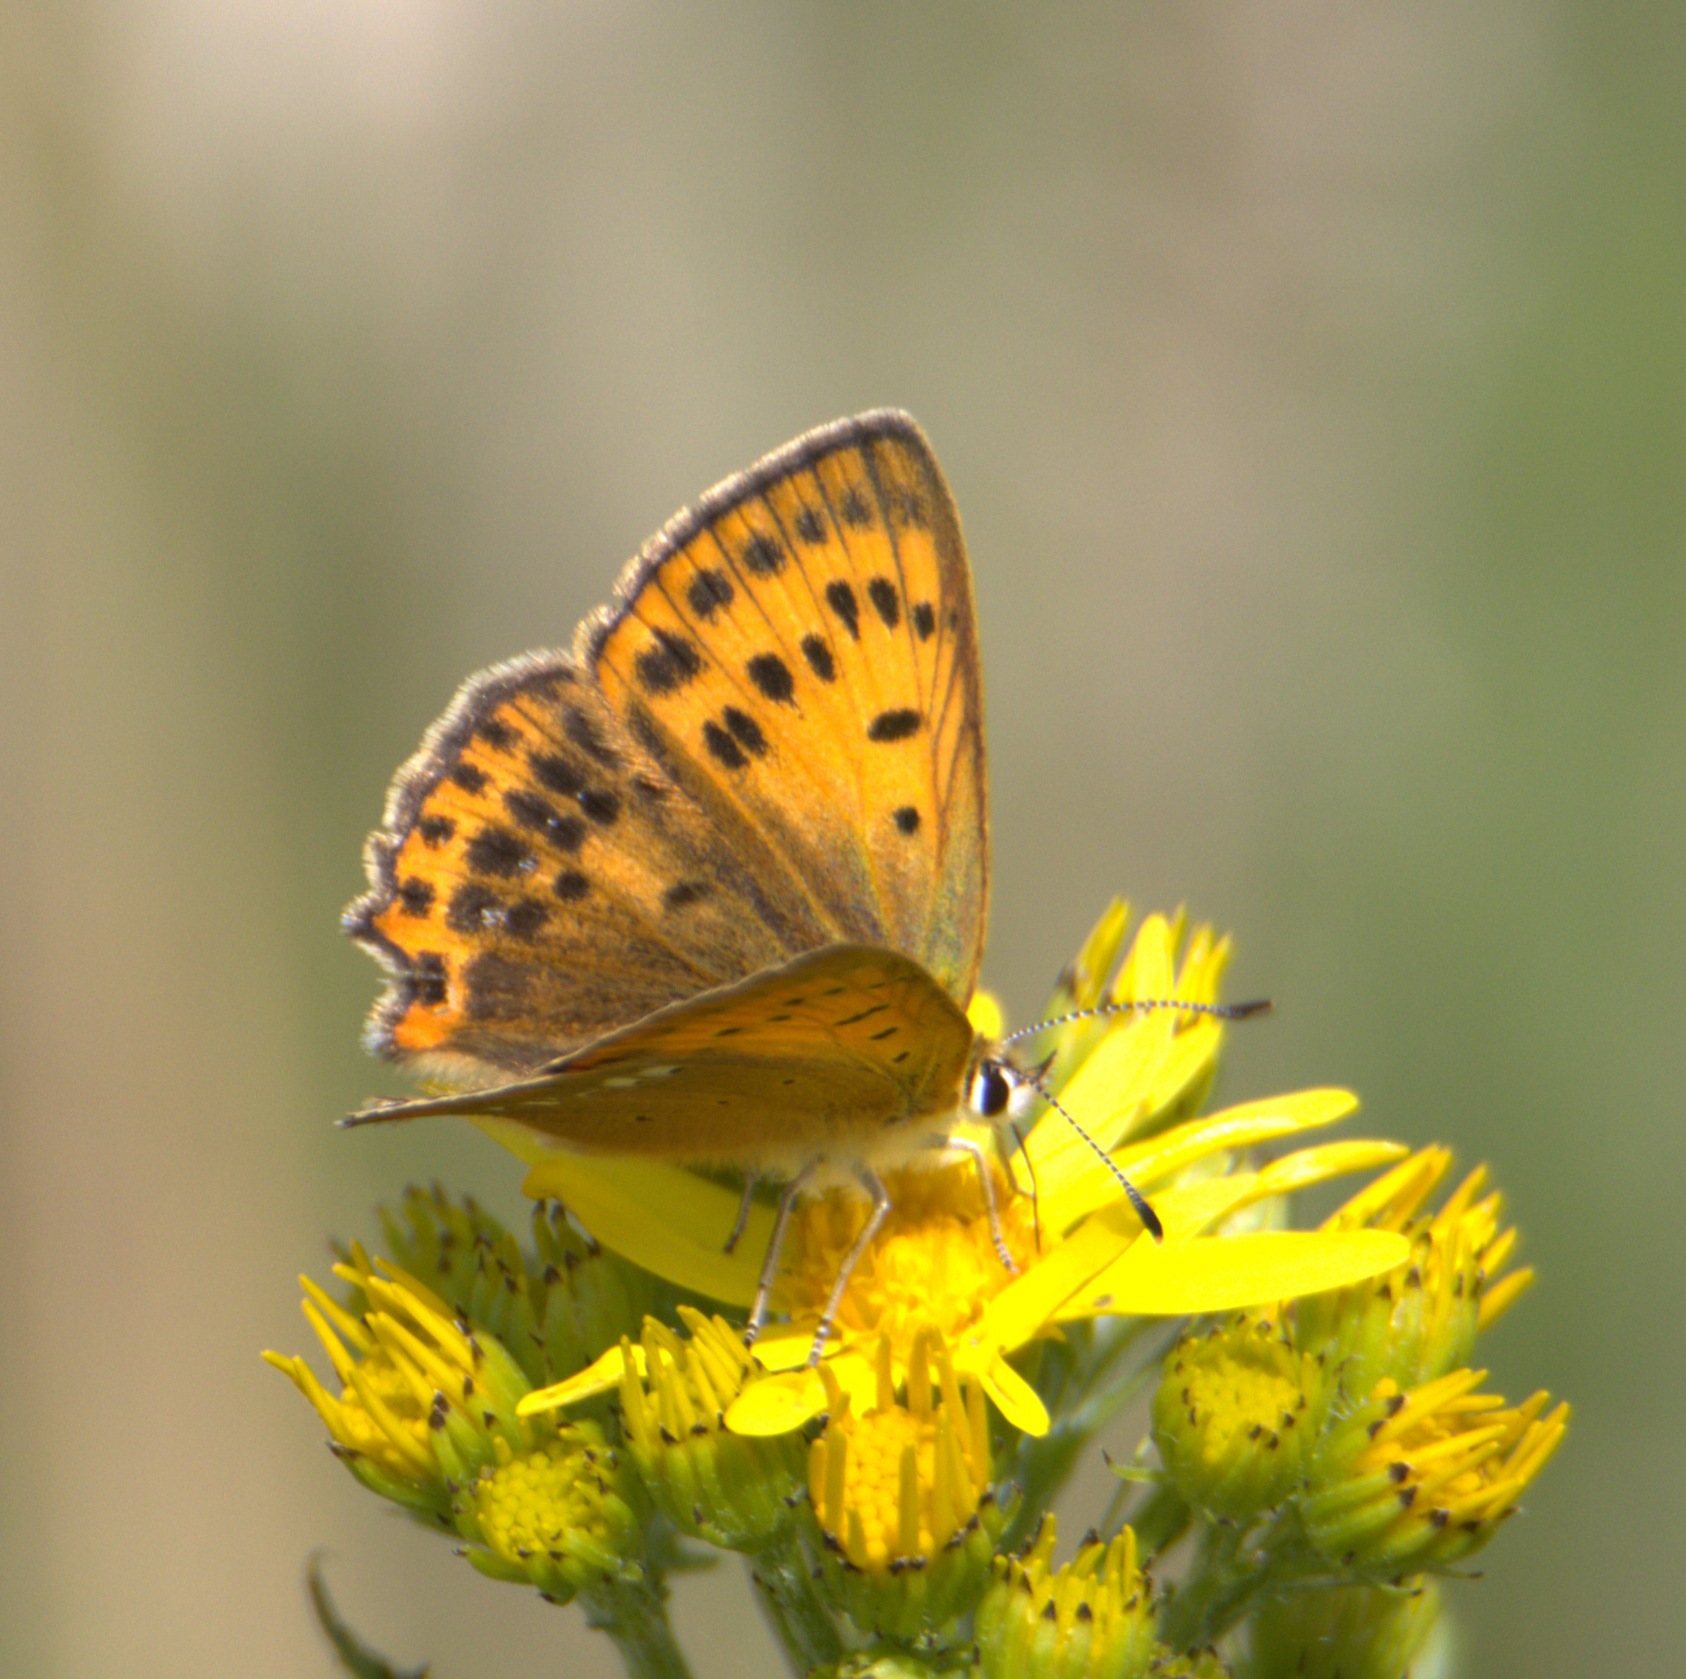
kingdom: Animalia
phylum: Arthropoda
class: Insecta
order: Lepidoptera
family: Lycaenidae
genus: Lycaena
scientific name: Lycaena virgaureae
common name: Dukatsommerfugl
